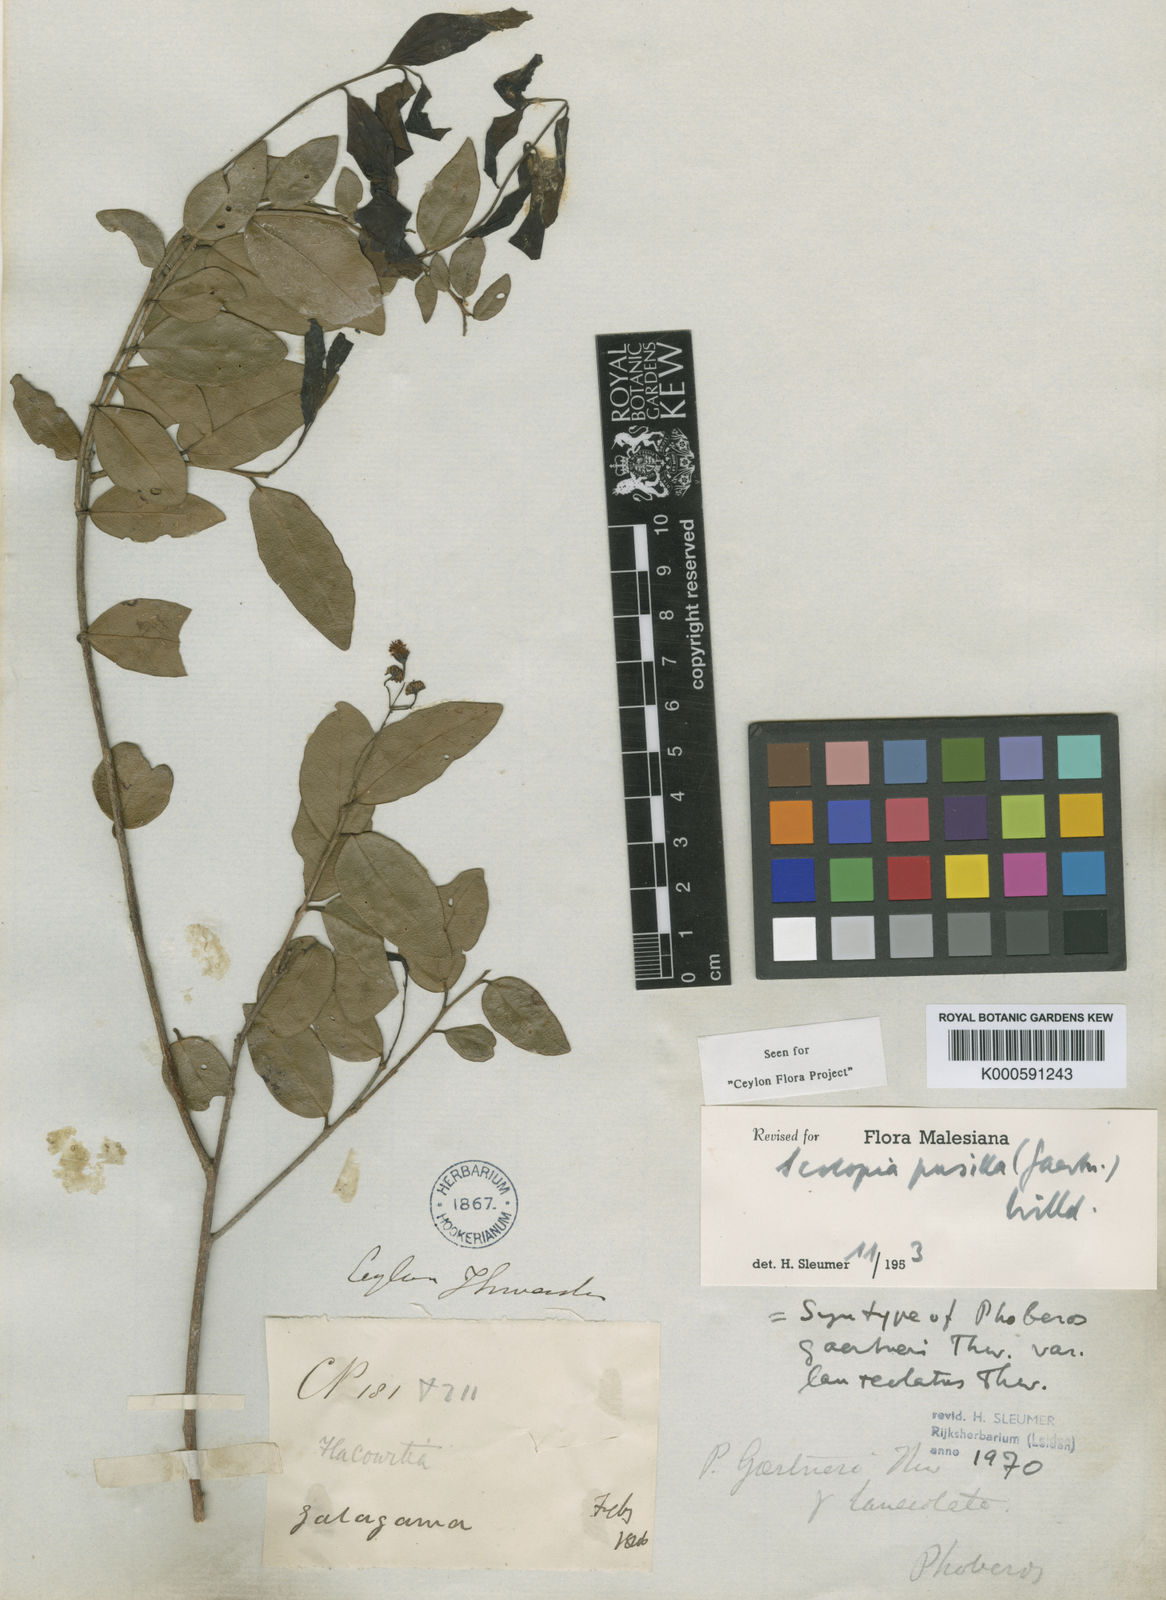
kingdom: Plantae
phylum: Tracheophyta
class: Magnoliopsida
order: Malpighiales
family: Salicaceae
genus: Scolopia
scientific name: Scolopia pusilla
